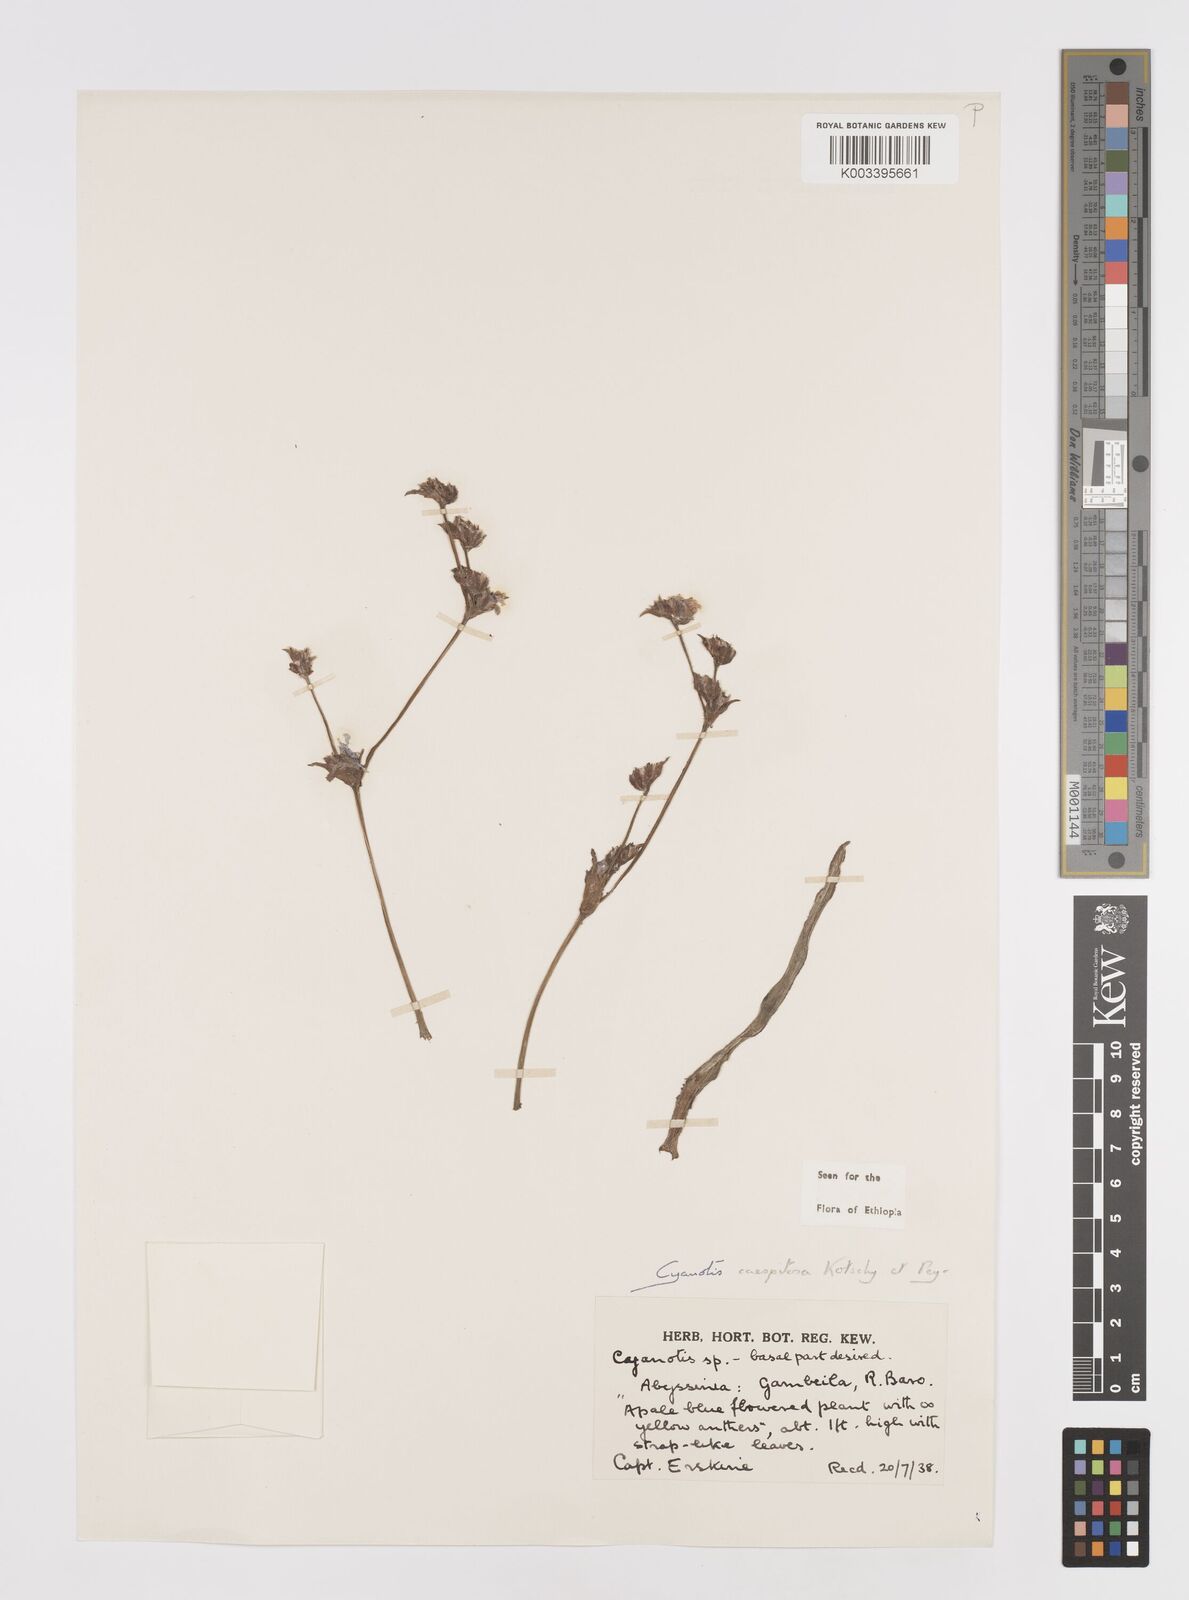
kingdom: Plantae
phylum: Tracheophyta
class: Liliopsida
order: Commelinales
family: Commelinaceae
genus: Cyanotis
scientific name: Cyanotis caespitosa
